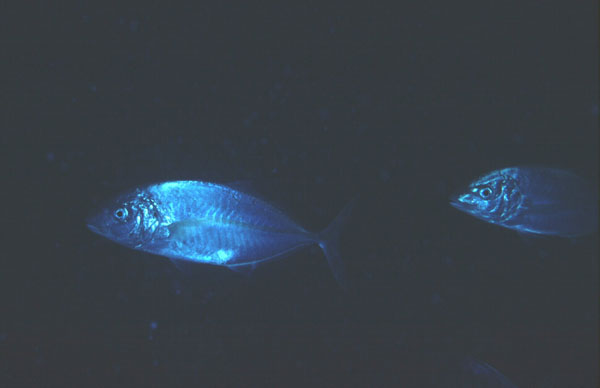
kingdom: Animalia
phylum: Chordata
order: Perciformes
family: Carangidae
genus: Pseudocaranx
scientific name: Pseudocaranx dentex
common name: White trevally
